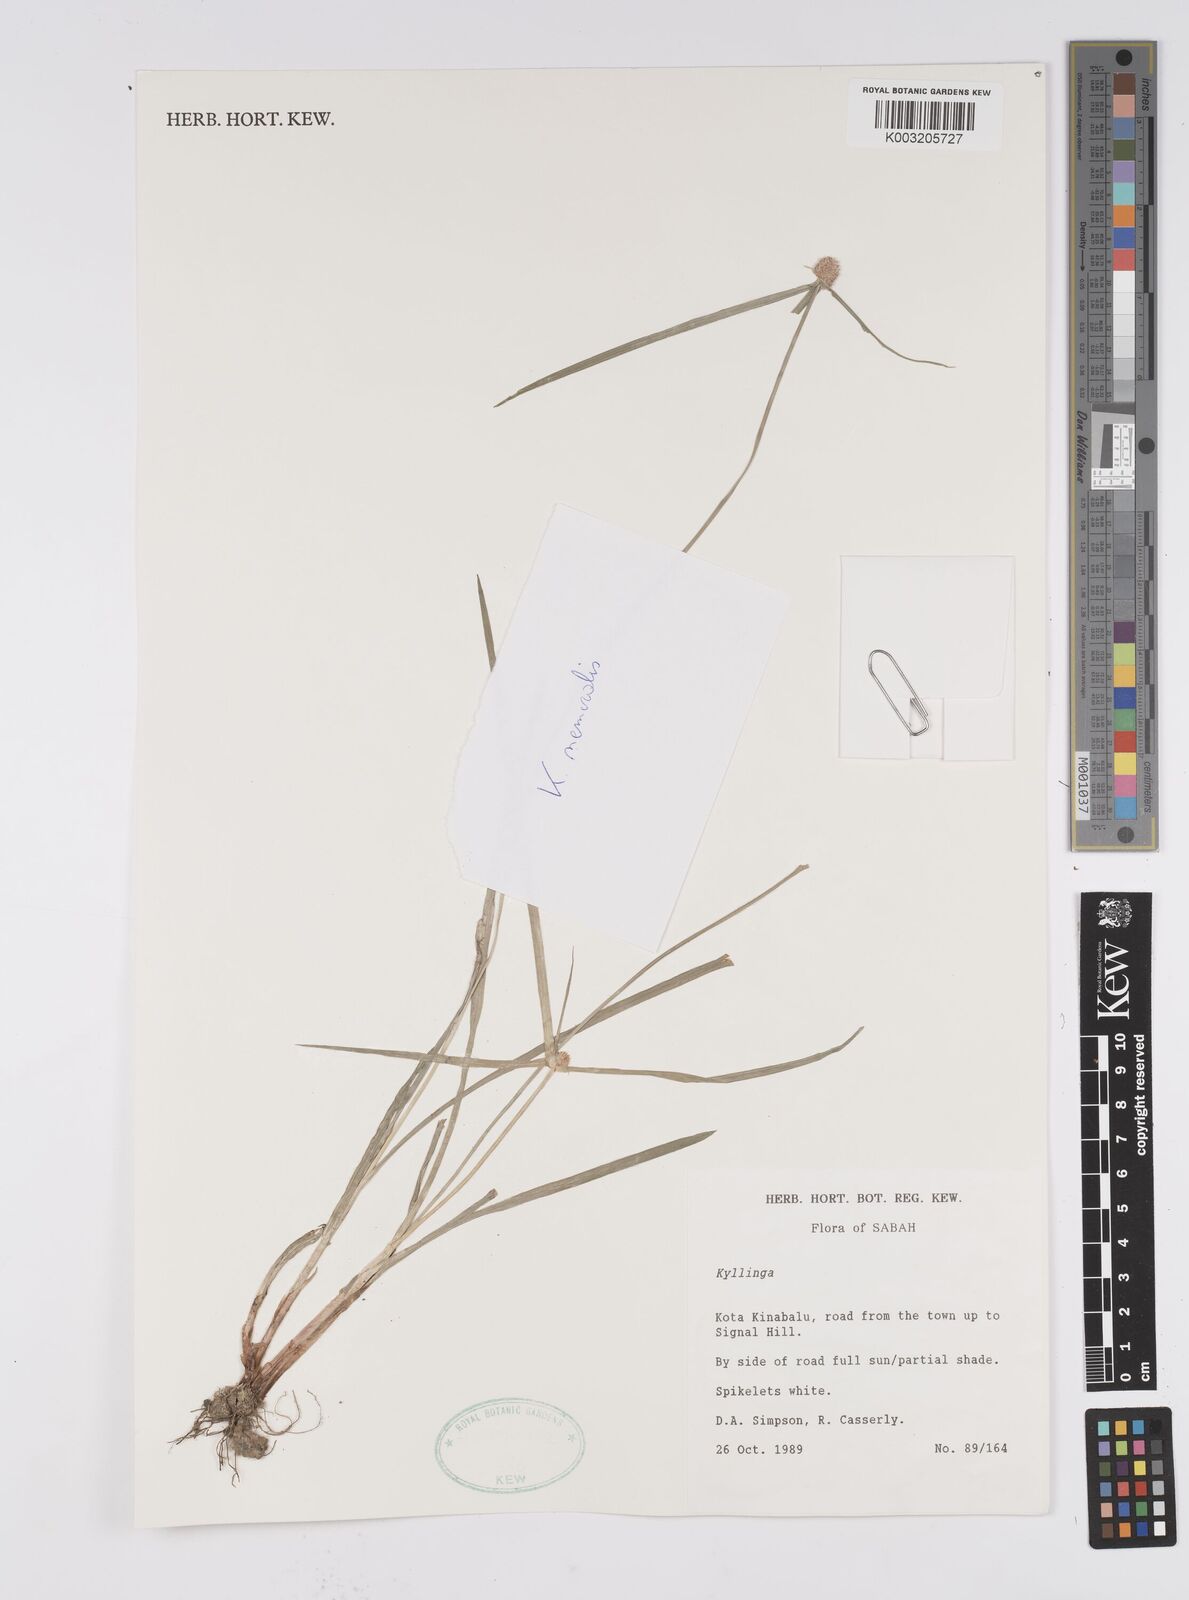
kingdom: Plantae
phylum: Tracheophyta
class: Liliopsida
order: Poales
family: Cyperaceae
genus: Cyperus
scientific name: Cyperus nemoralis
